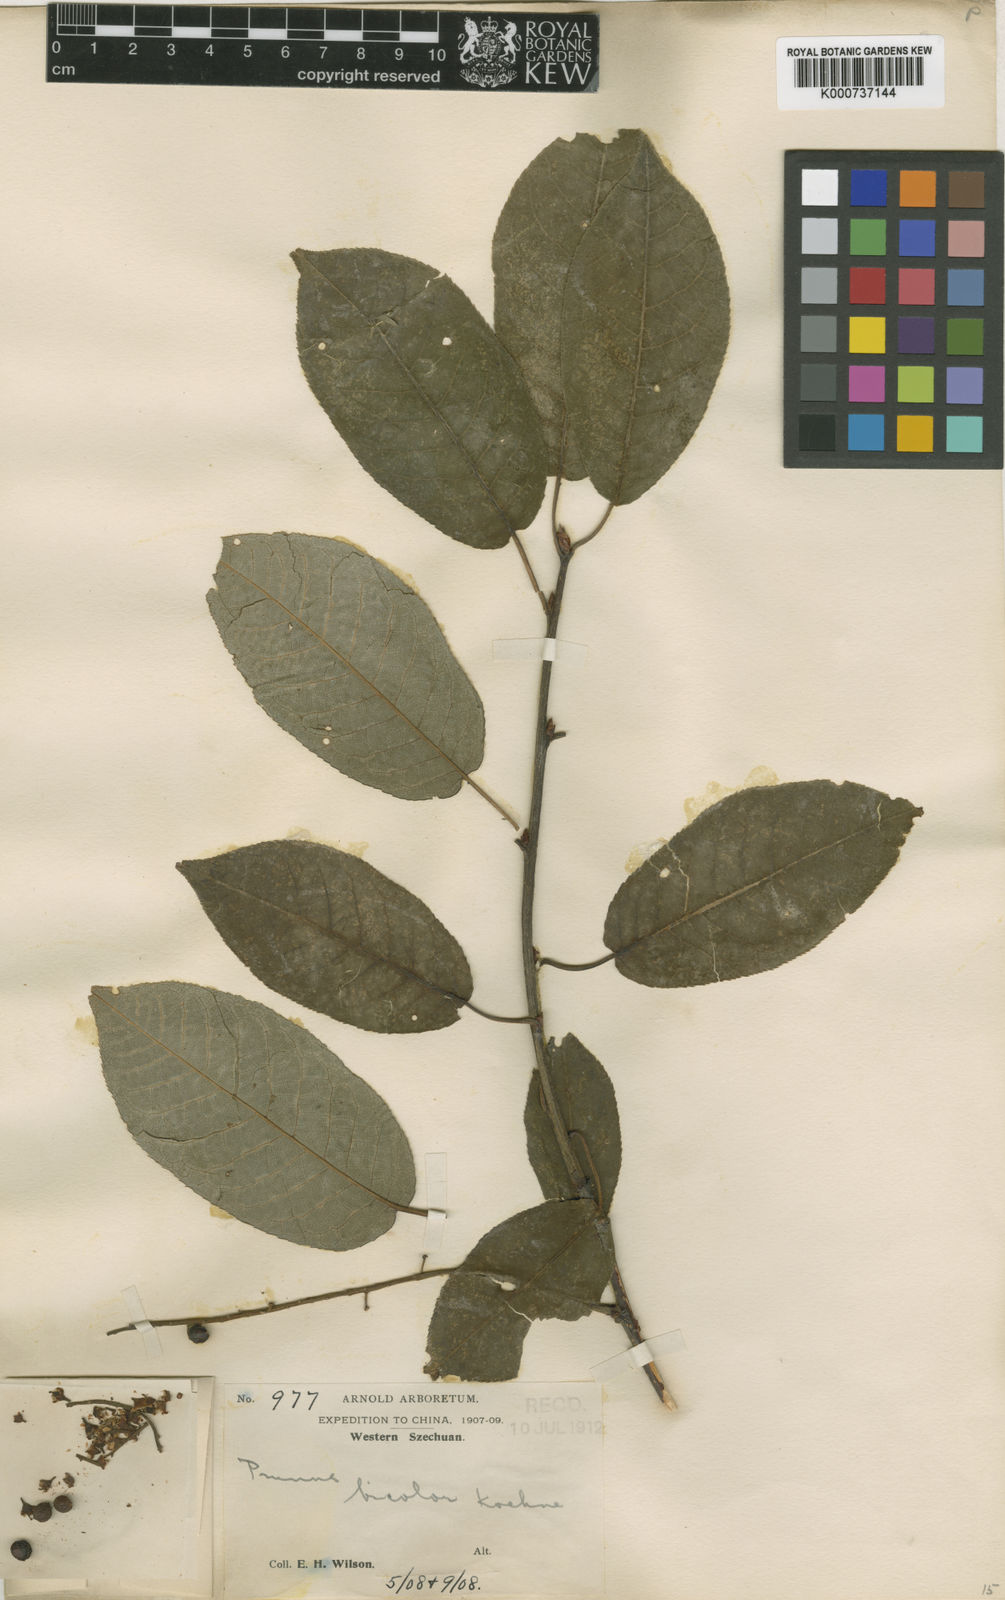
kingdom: Plantae
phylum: Tracheophyta
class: Magnoliopsida
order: Rosales
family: Rosaceae
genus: Prunus
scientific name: Prunus obtusata
